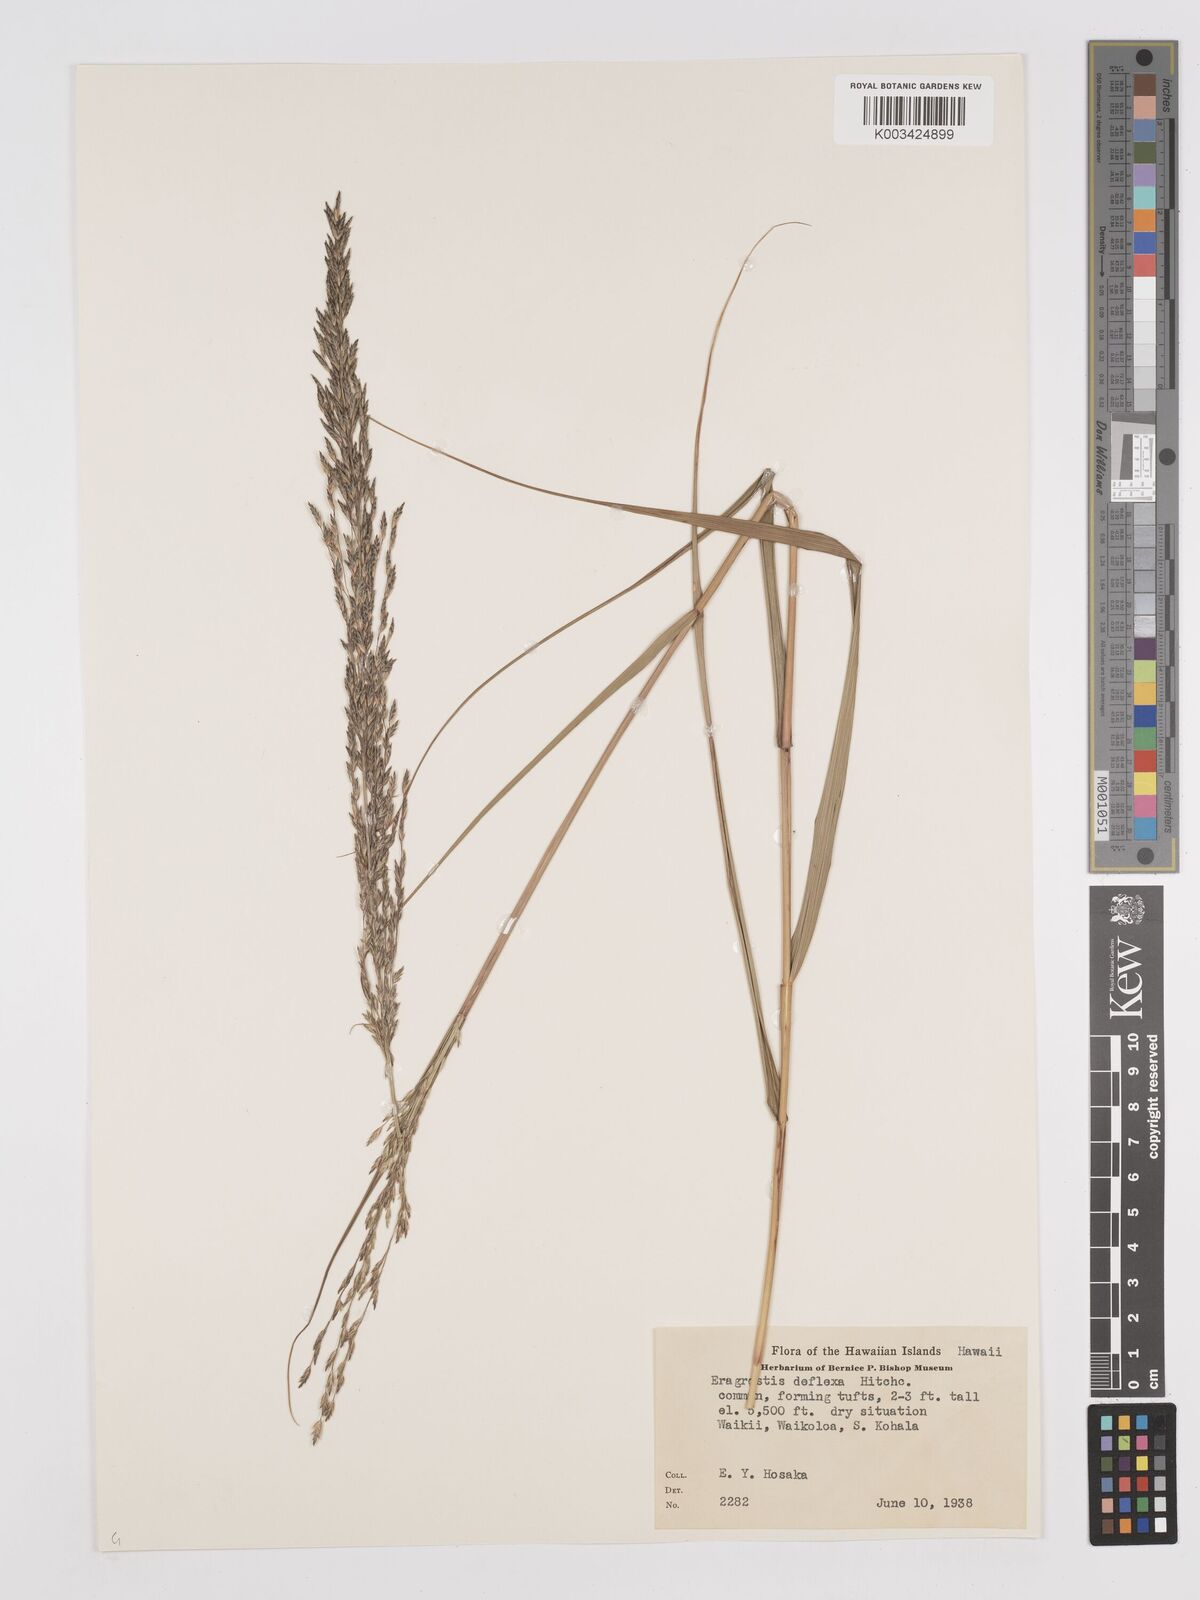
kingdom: Plantae
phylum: Tracheophyta
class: Liliopsida
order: Poales
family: Poaceae
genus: Eragrostis
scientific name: Eragrostis atropioides
